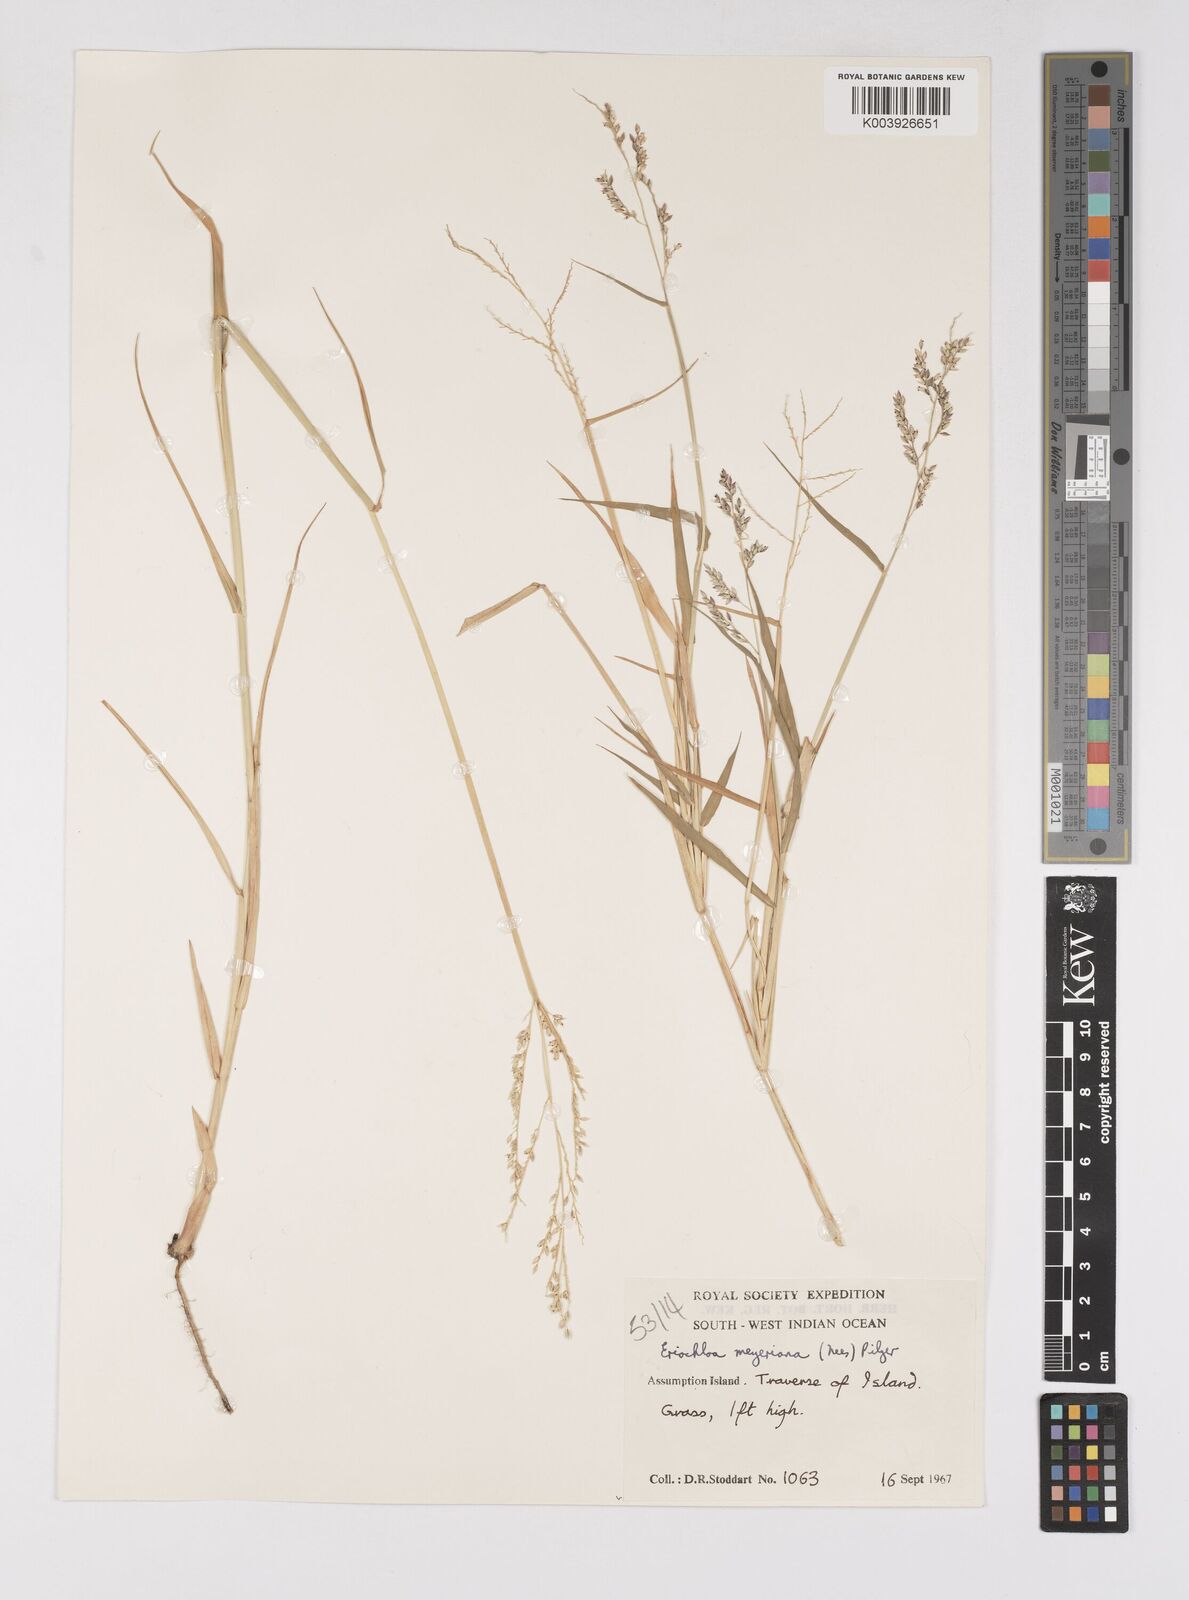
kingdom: Plantae
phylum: Tracheophyta
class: Liliopsida
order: Poales
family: Poaceae
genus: Eriochloa
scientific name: Eriochloa meyeriana
